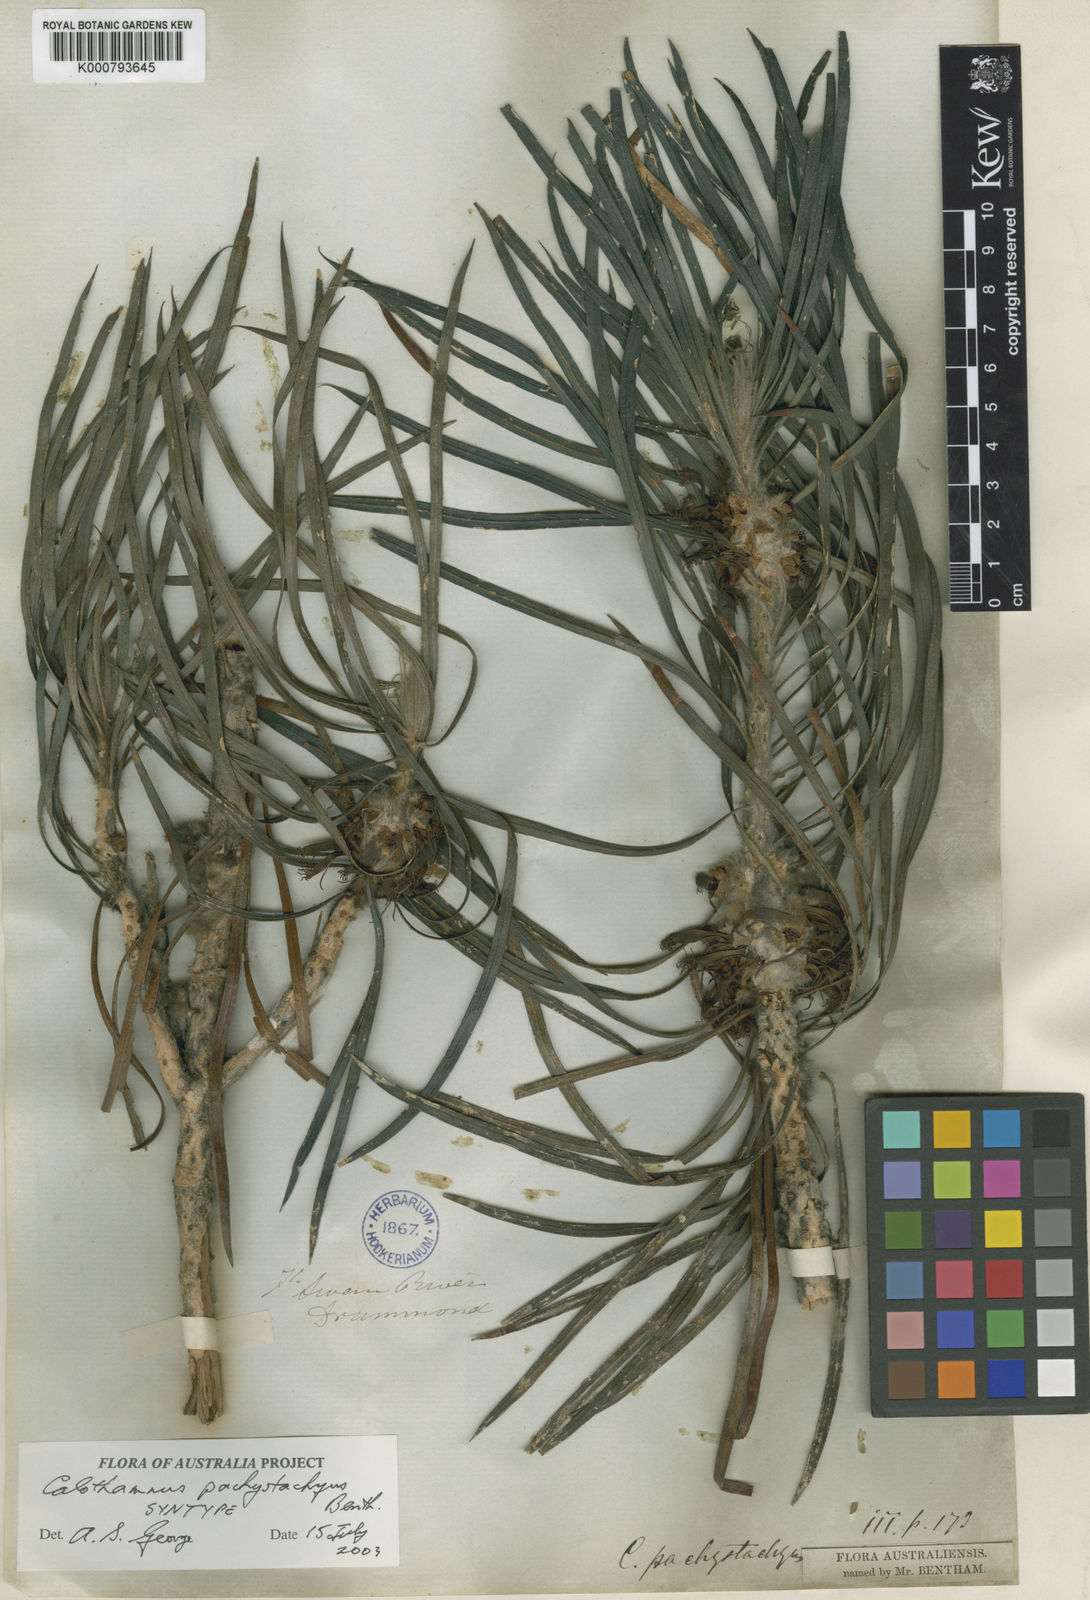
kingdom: Plantae
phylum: Tracheophyta
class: Magnoliopsida
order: Myrtales
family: Myrtaceae
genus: Melaleuca
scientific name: Melaleuca pachystachya
